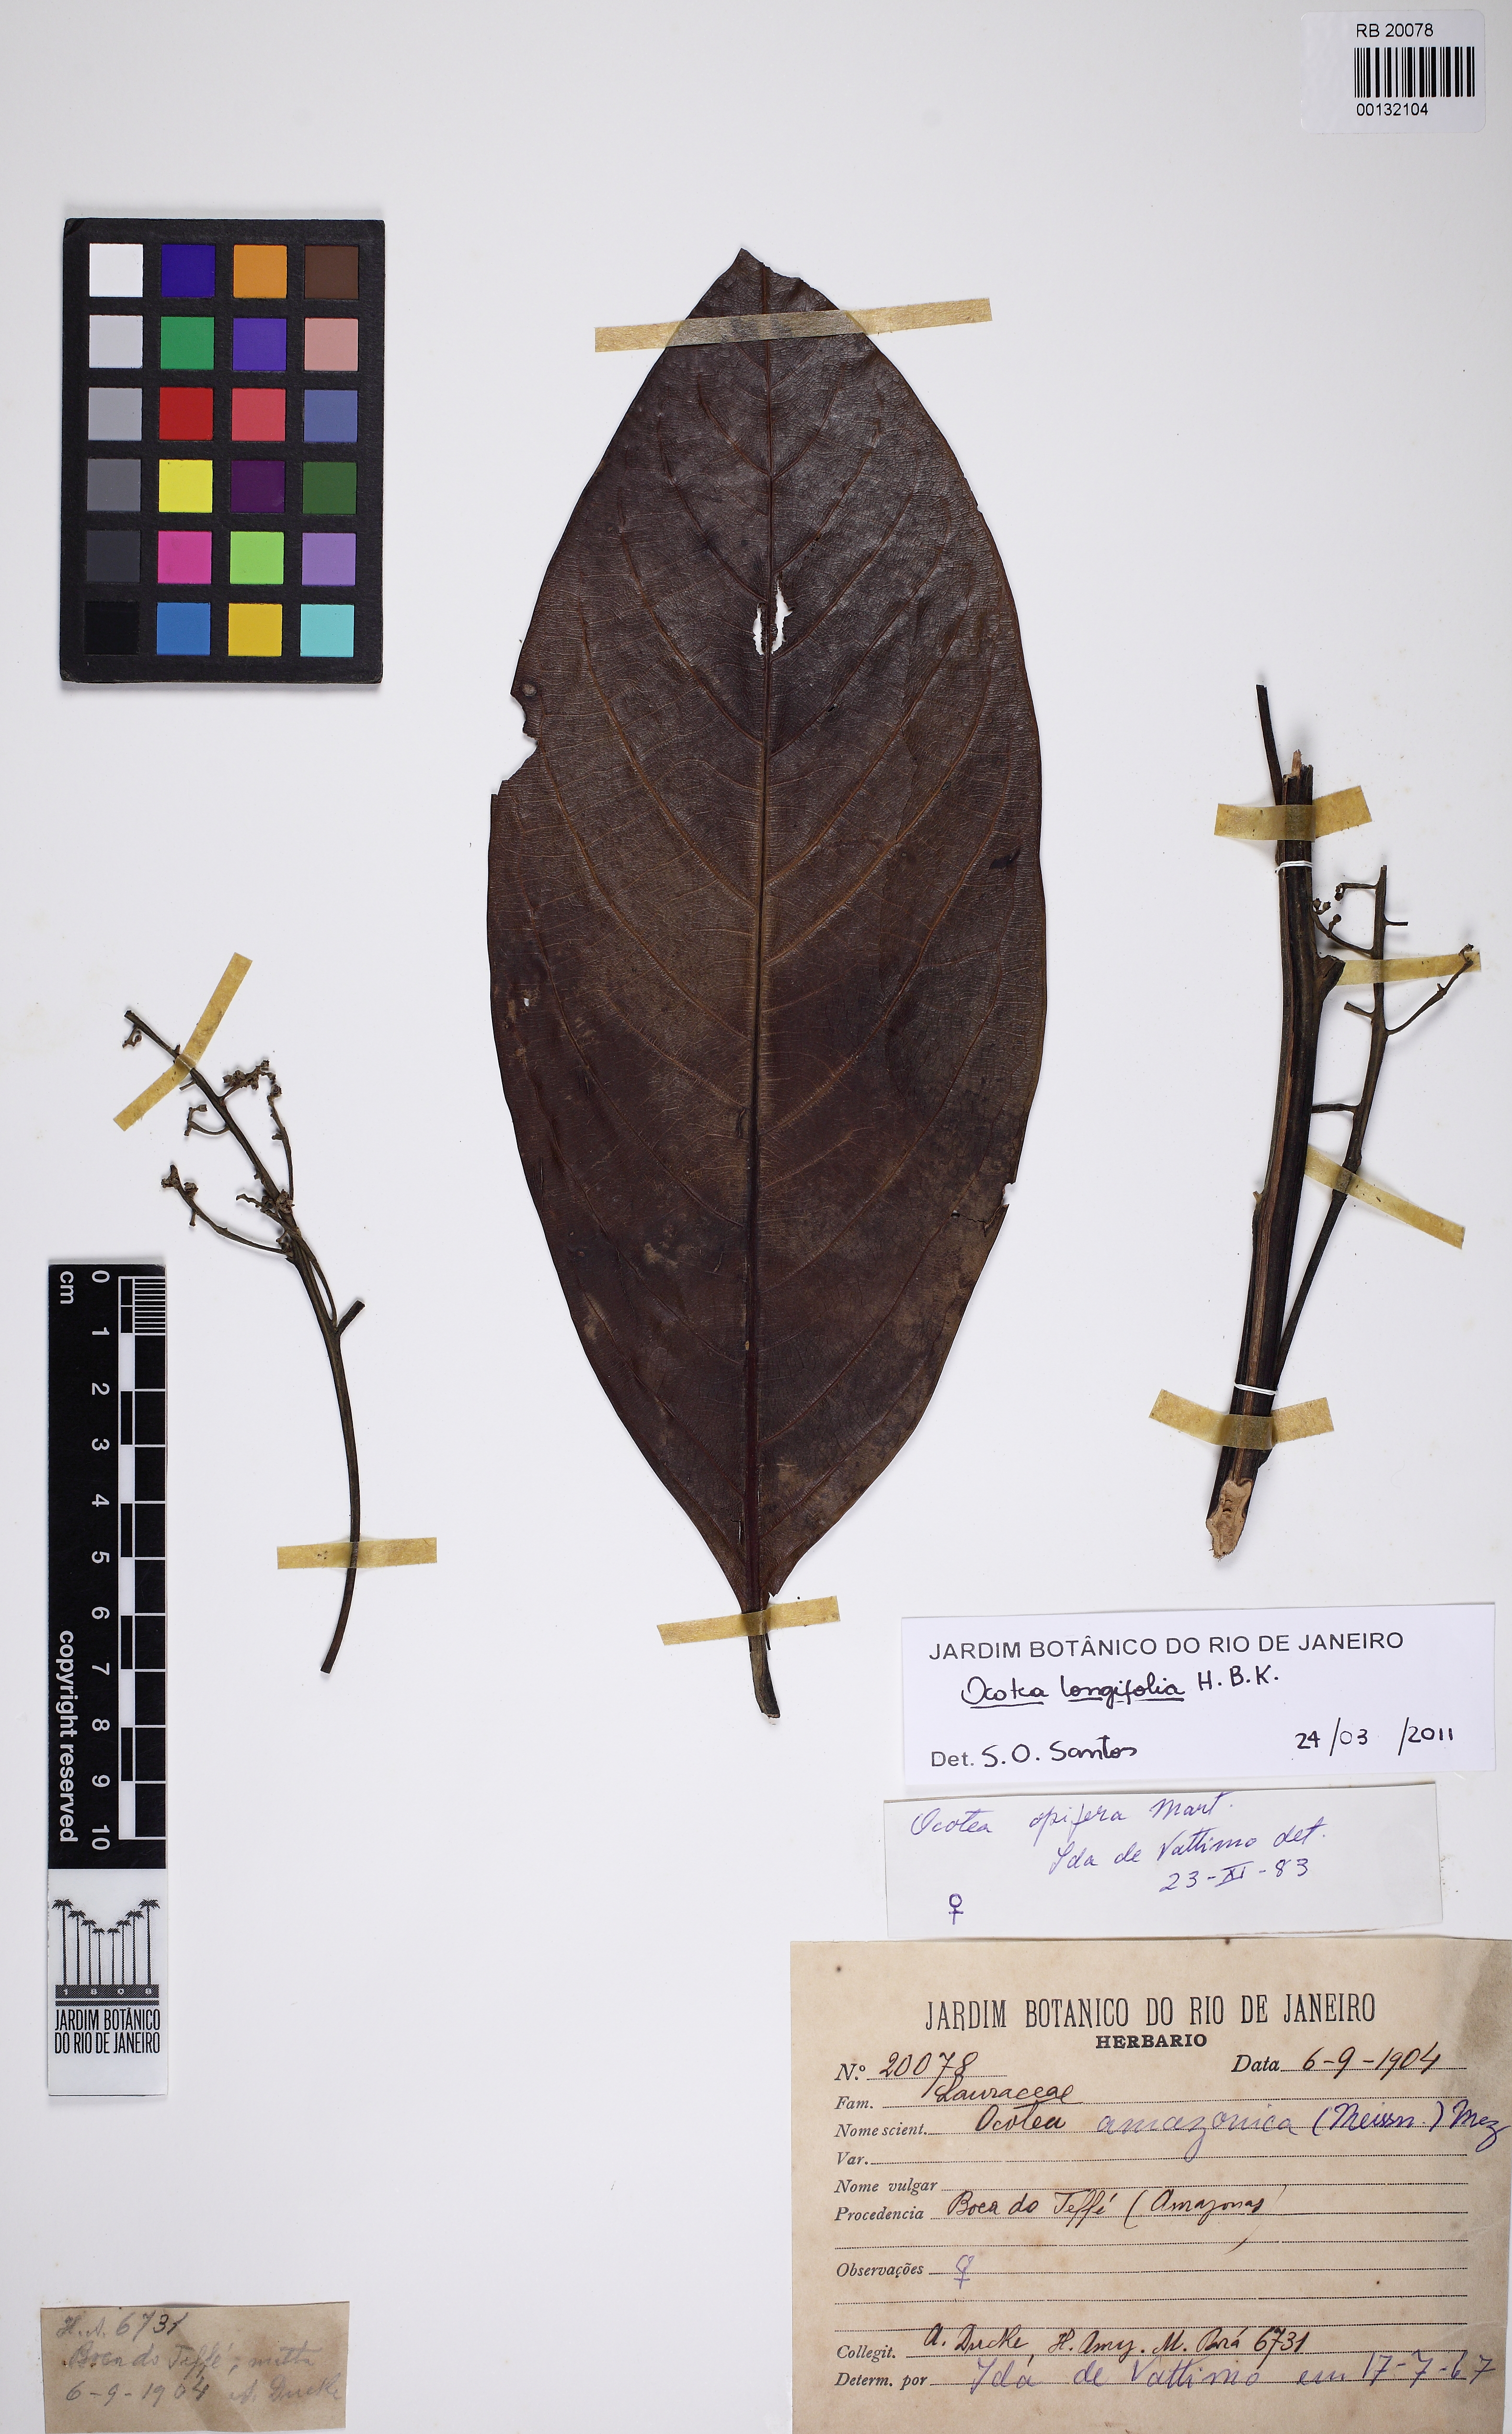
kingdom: Plantae
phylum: Tracheophyta
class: Magnoliopsida
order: Laurales
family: Lauraceae
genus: Mespilodaphne
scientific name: Mespilodaphne opifera
